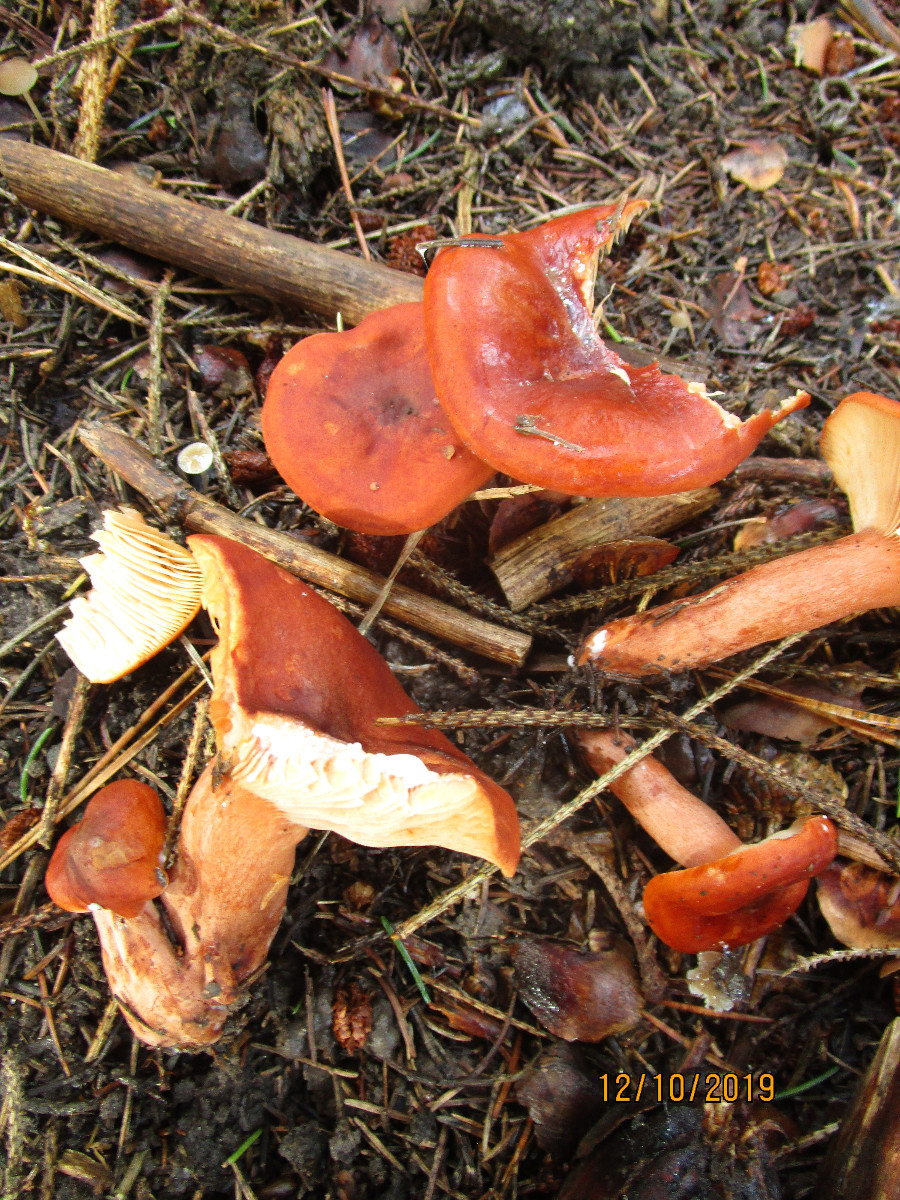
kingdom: Fungi
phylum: Basidiomycota
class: Agaricomycetes
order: Russulales
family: Russulaceae
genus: Lactarius
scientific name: Lactarius fulvissimus
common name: ræve-mælkehat
